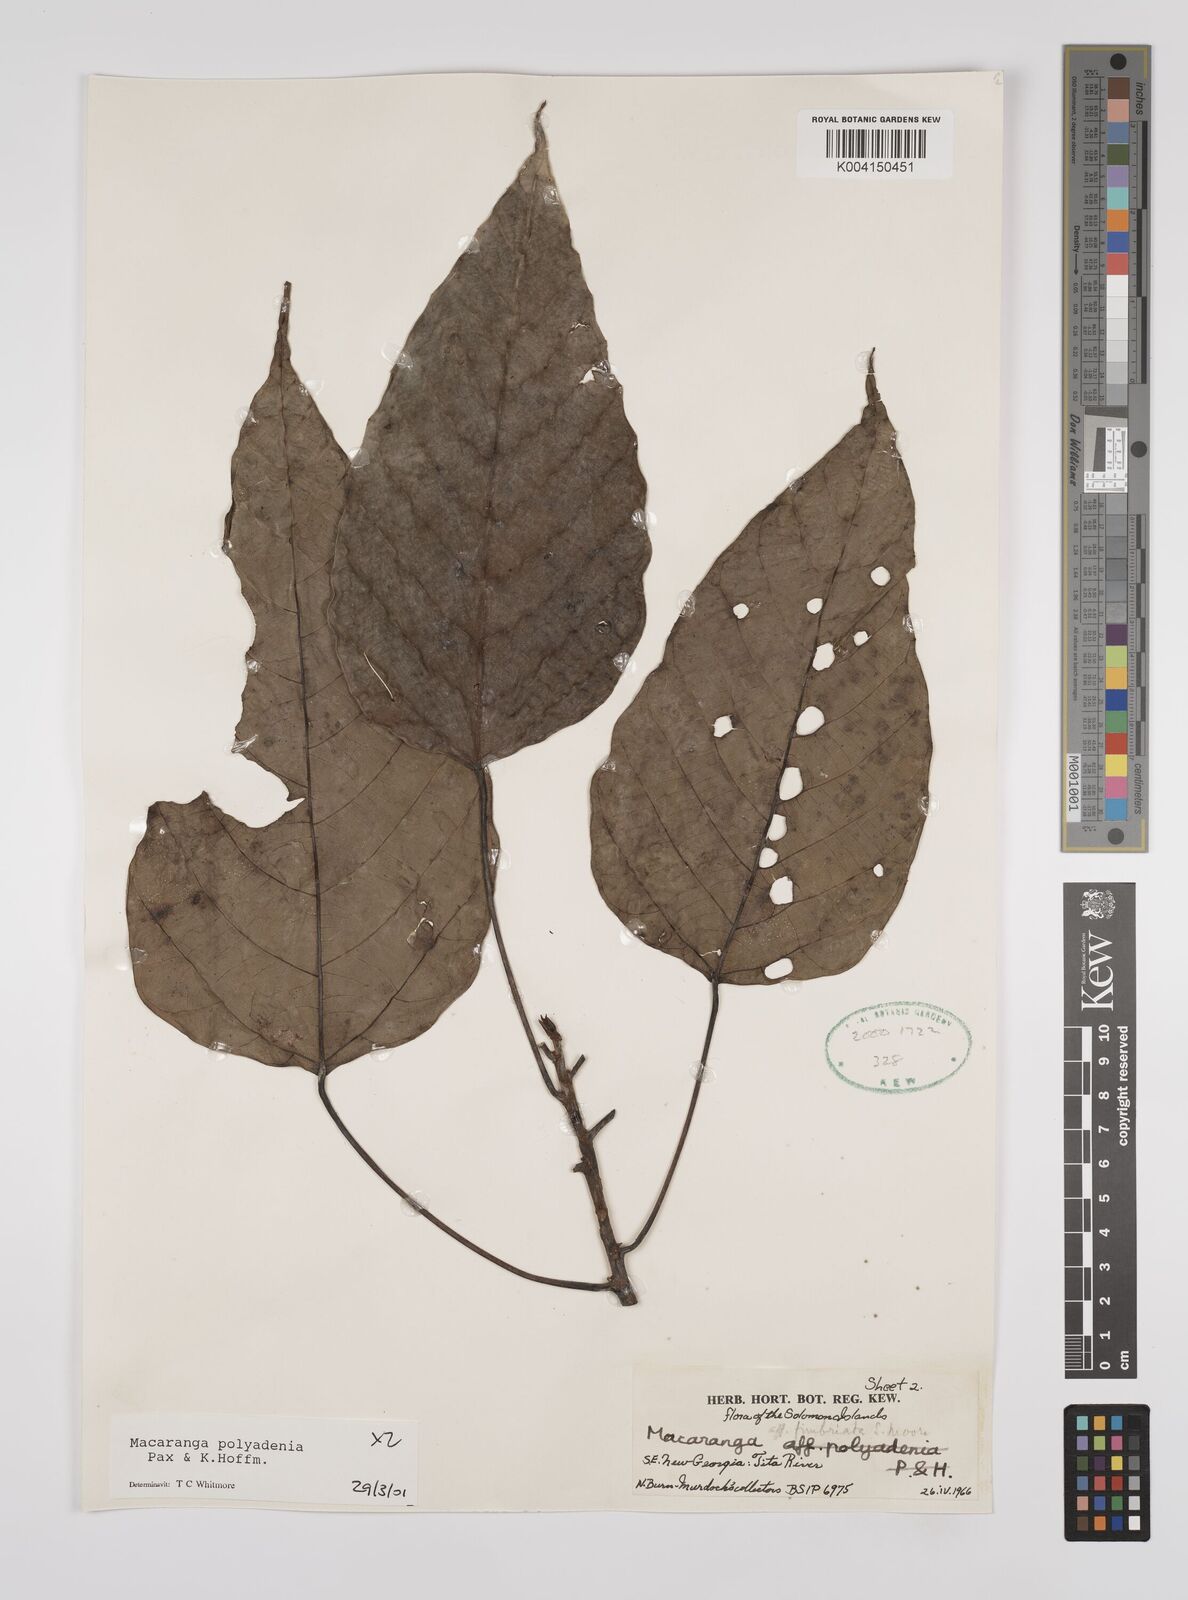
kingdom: Plantae
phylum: Tracheophyta
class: Magnoliopsida
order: Malpighiales
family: Euphorbiaceae
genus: Macaranga
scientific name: Macaranga polyadenia
